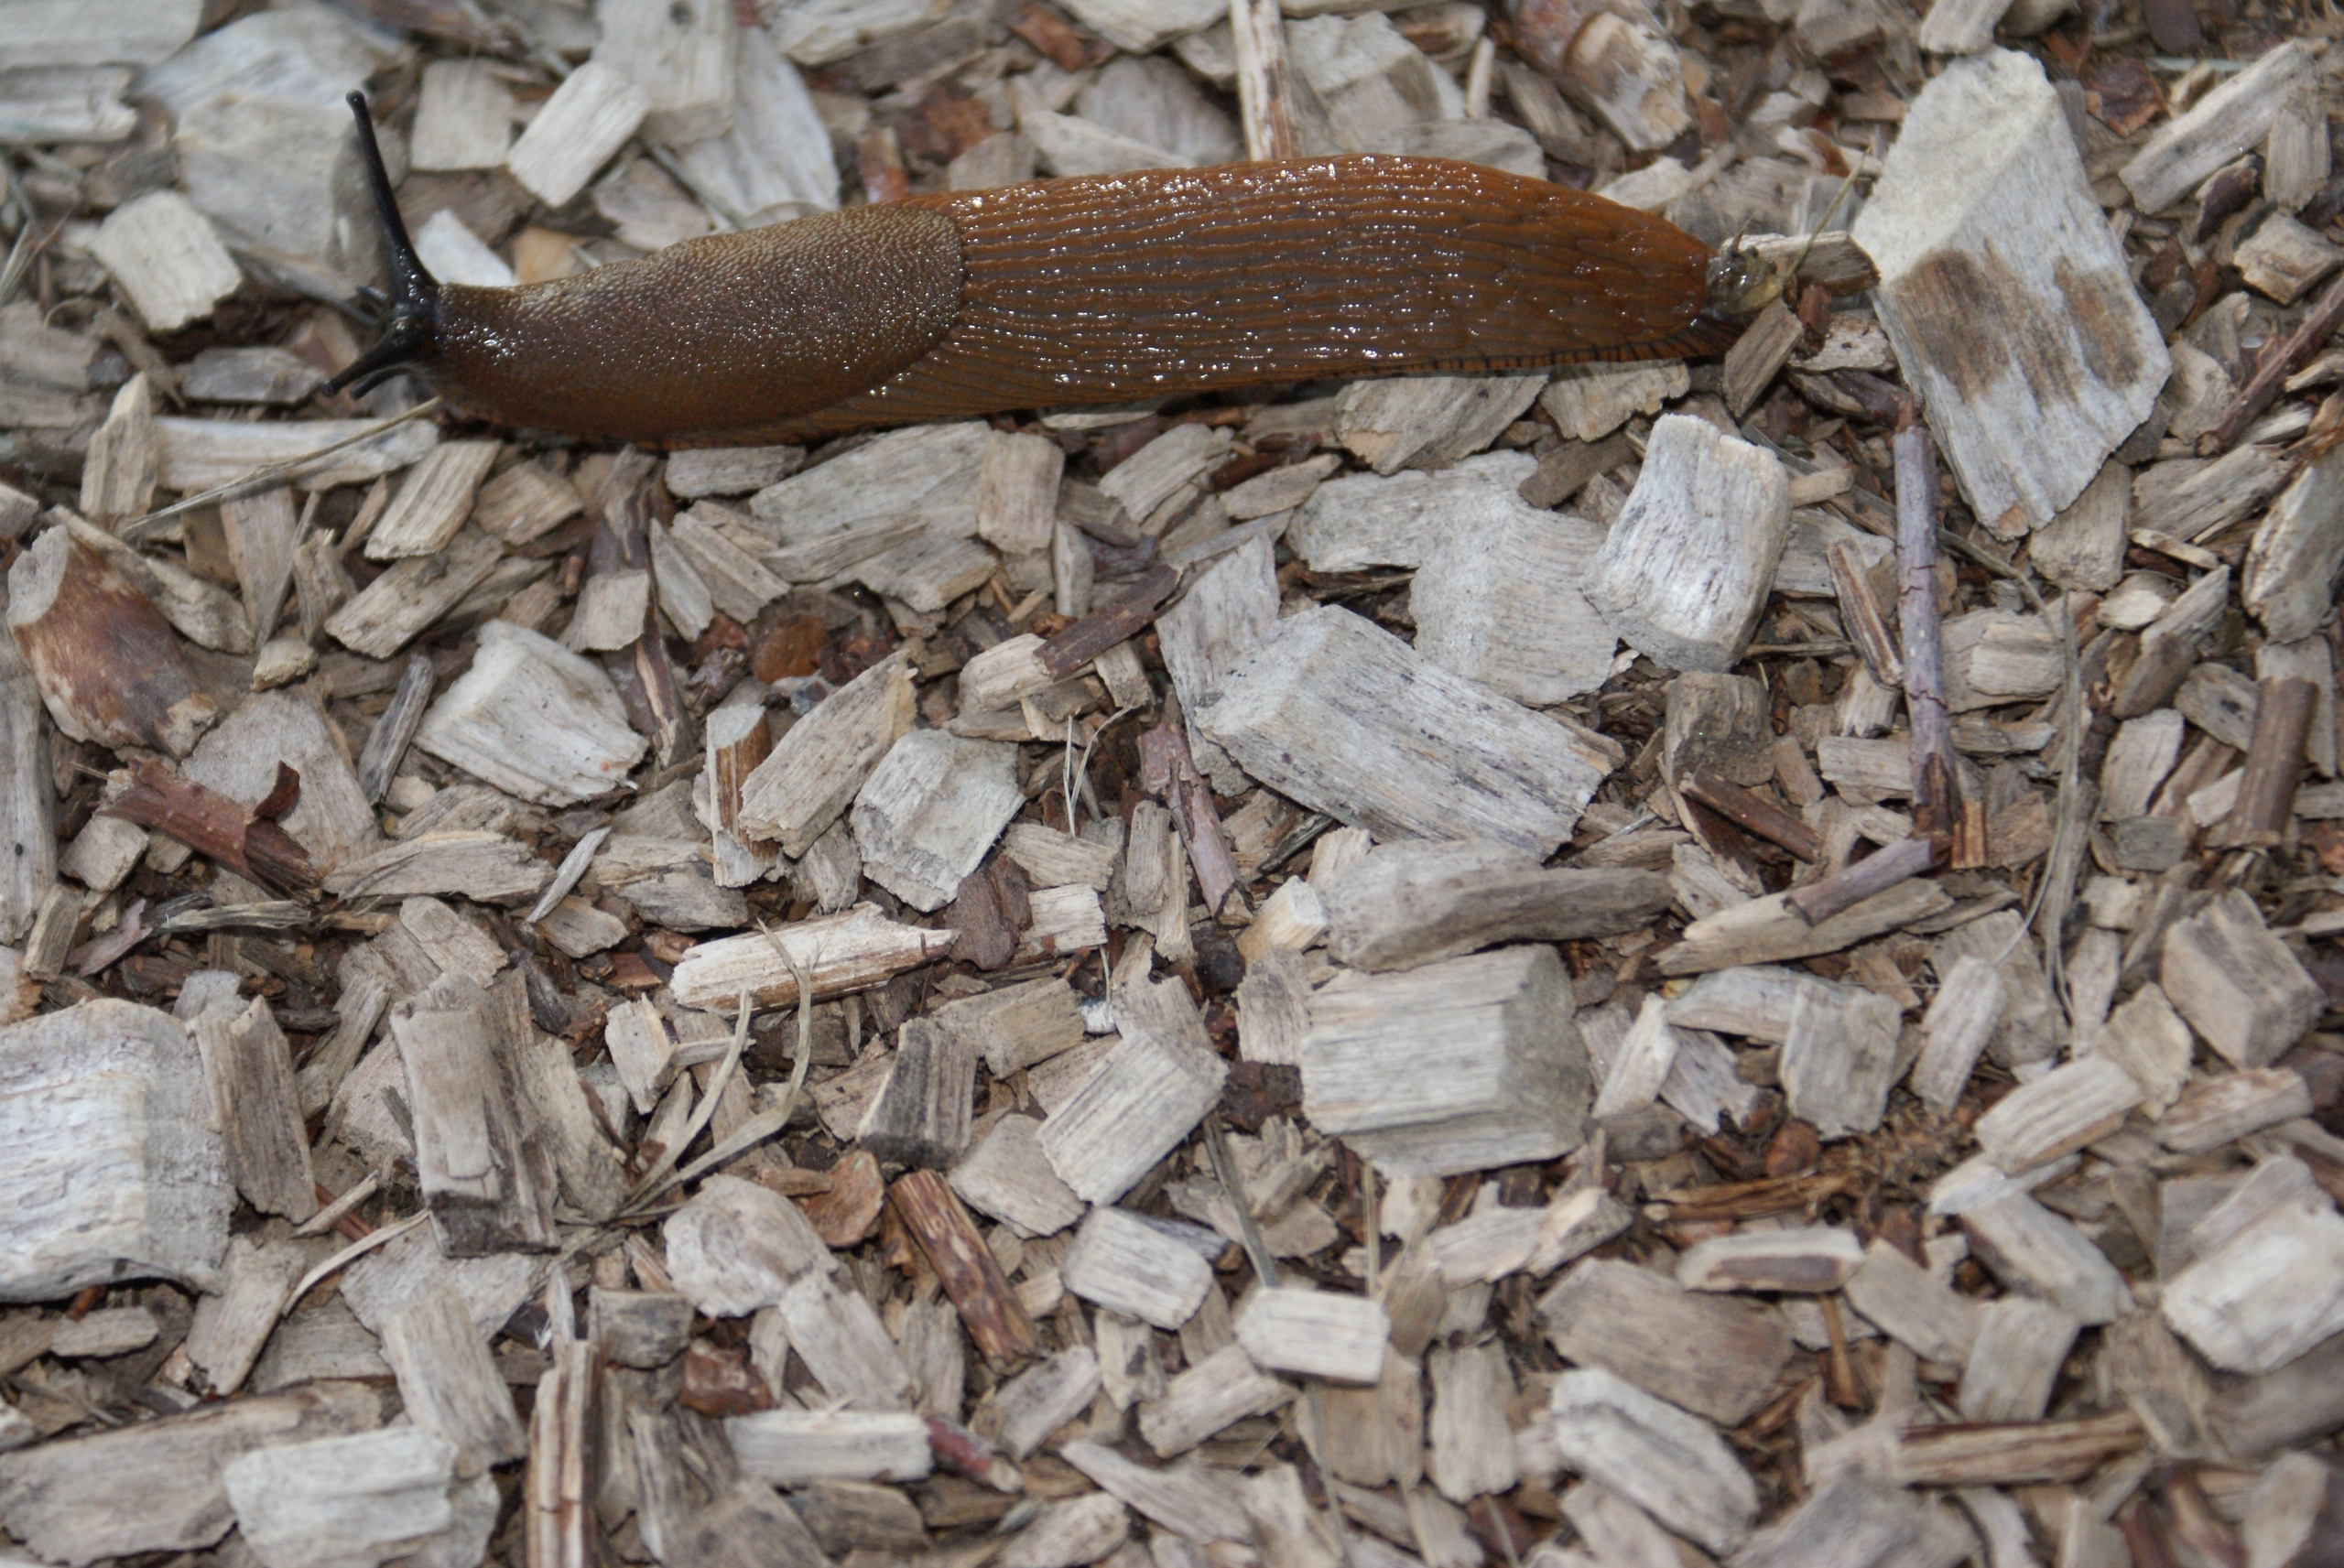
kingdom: Animalia
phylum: Mollusca
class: Gastropoda
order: Stylommatophora
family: Arionidae
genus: Arion
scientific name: Arion vulgaris
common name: Iberisk skovsnegl
